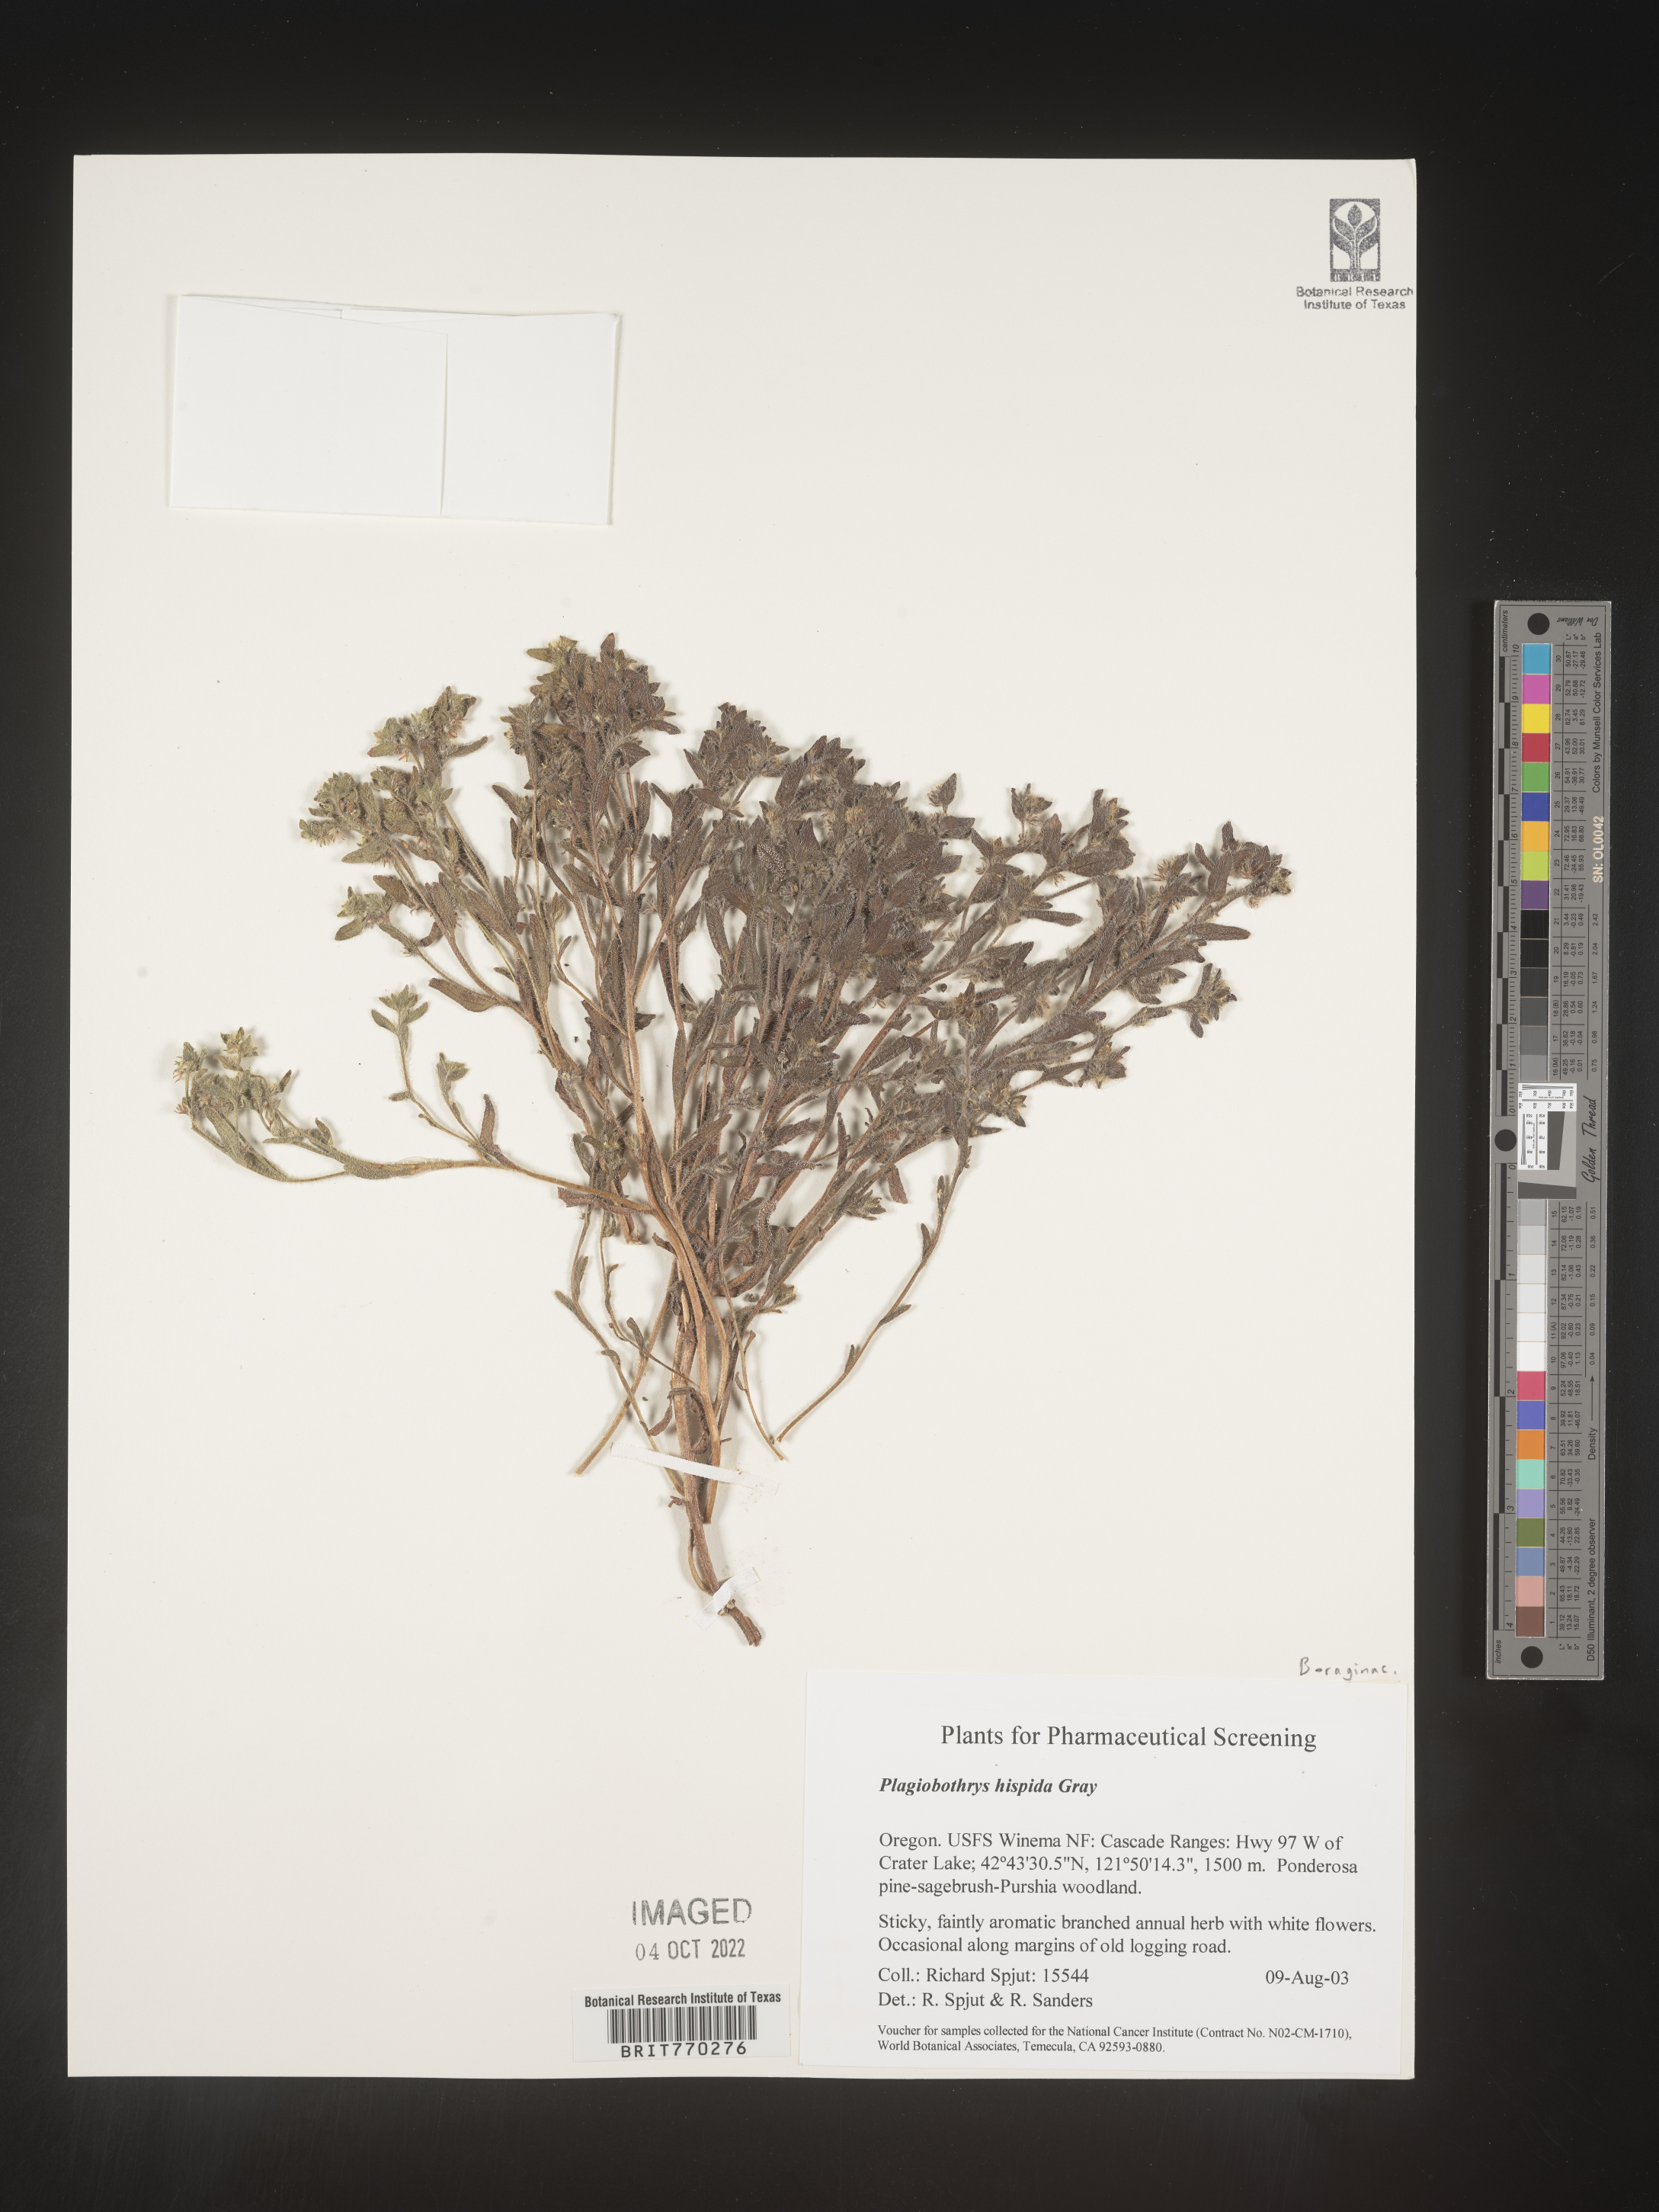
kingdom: Plantae
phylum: Tracheophyta
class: Magnoliopsida
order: Boraginales
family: Boraginaceae
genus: Plagiobothrys
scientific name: Plagiobothrys
